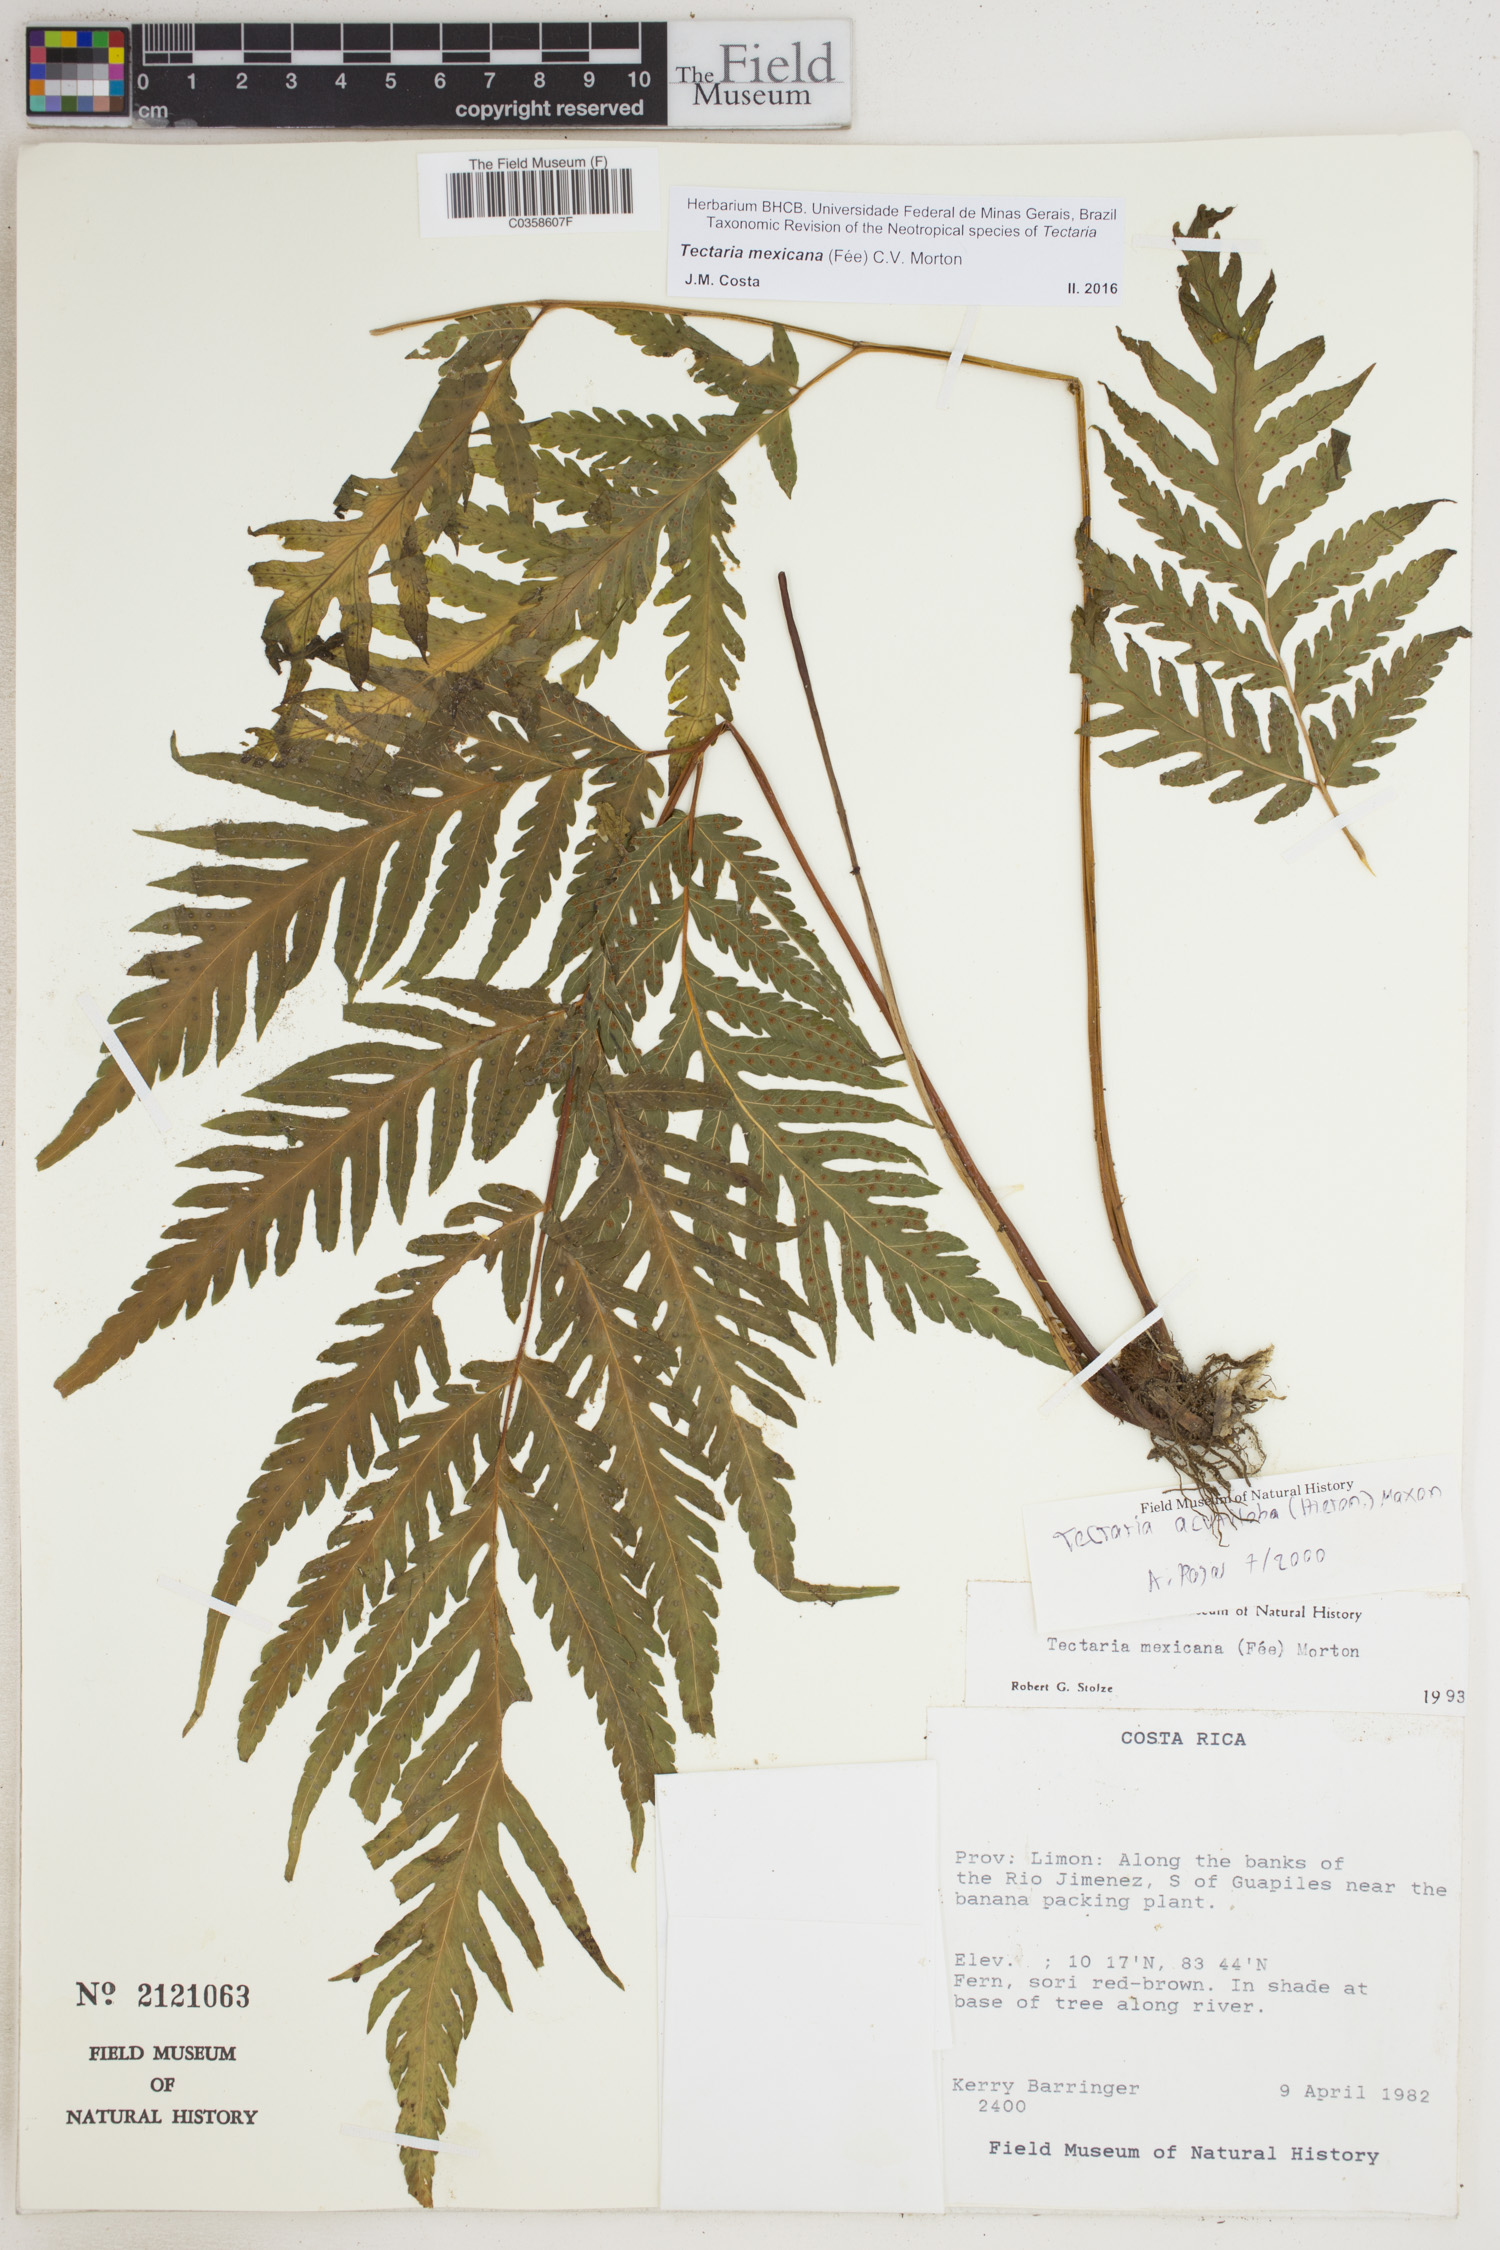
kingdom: Plantae
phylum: Tracheophyta
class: Polypodiopsida
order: Polypodiales
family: Tectariaceae
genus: Tectaria
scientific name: Tectaria mexicana
